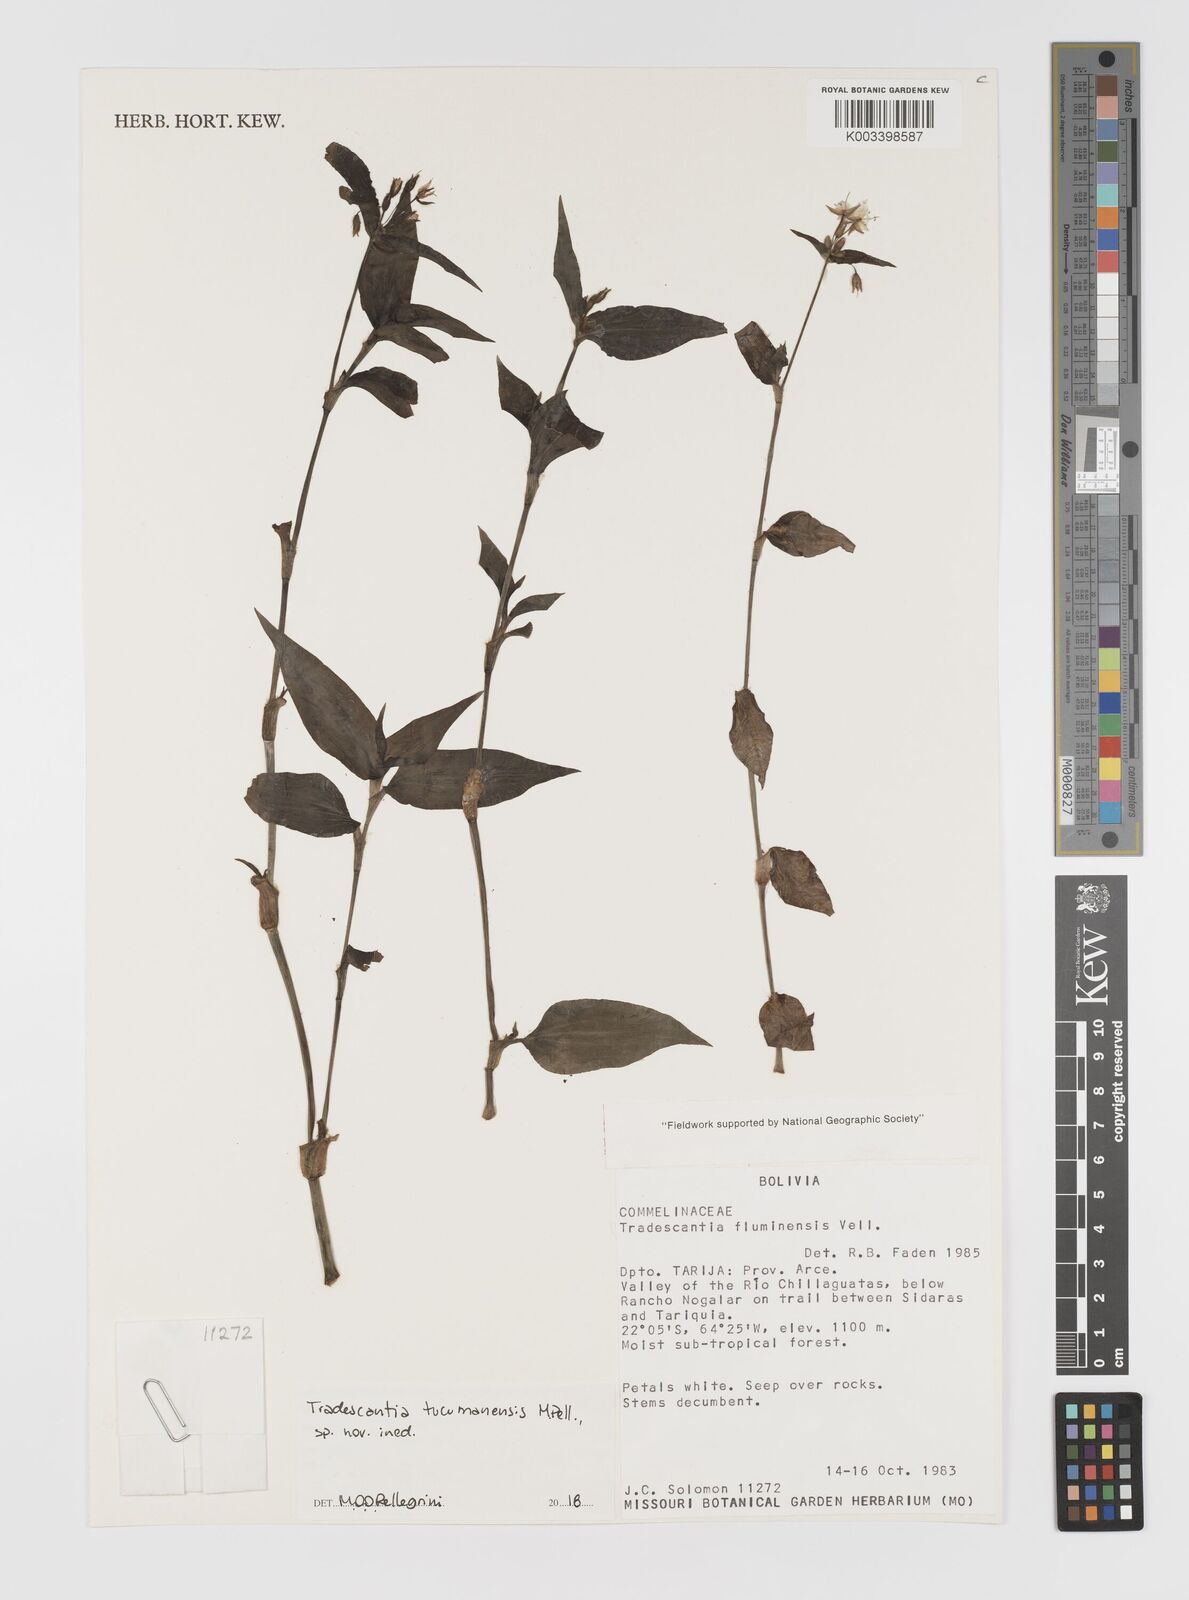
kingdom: Plantae
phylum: Tracheophyta
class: Liliopsida
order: Commelinales
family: Commelinaceae
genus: Tradescantia
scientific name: Tradescantia tucumanensis
